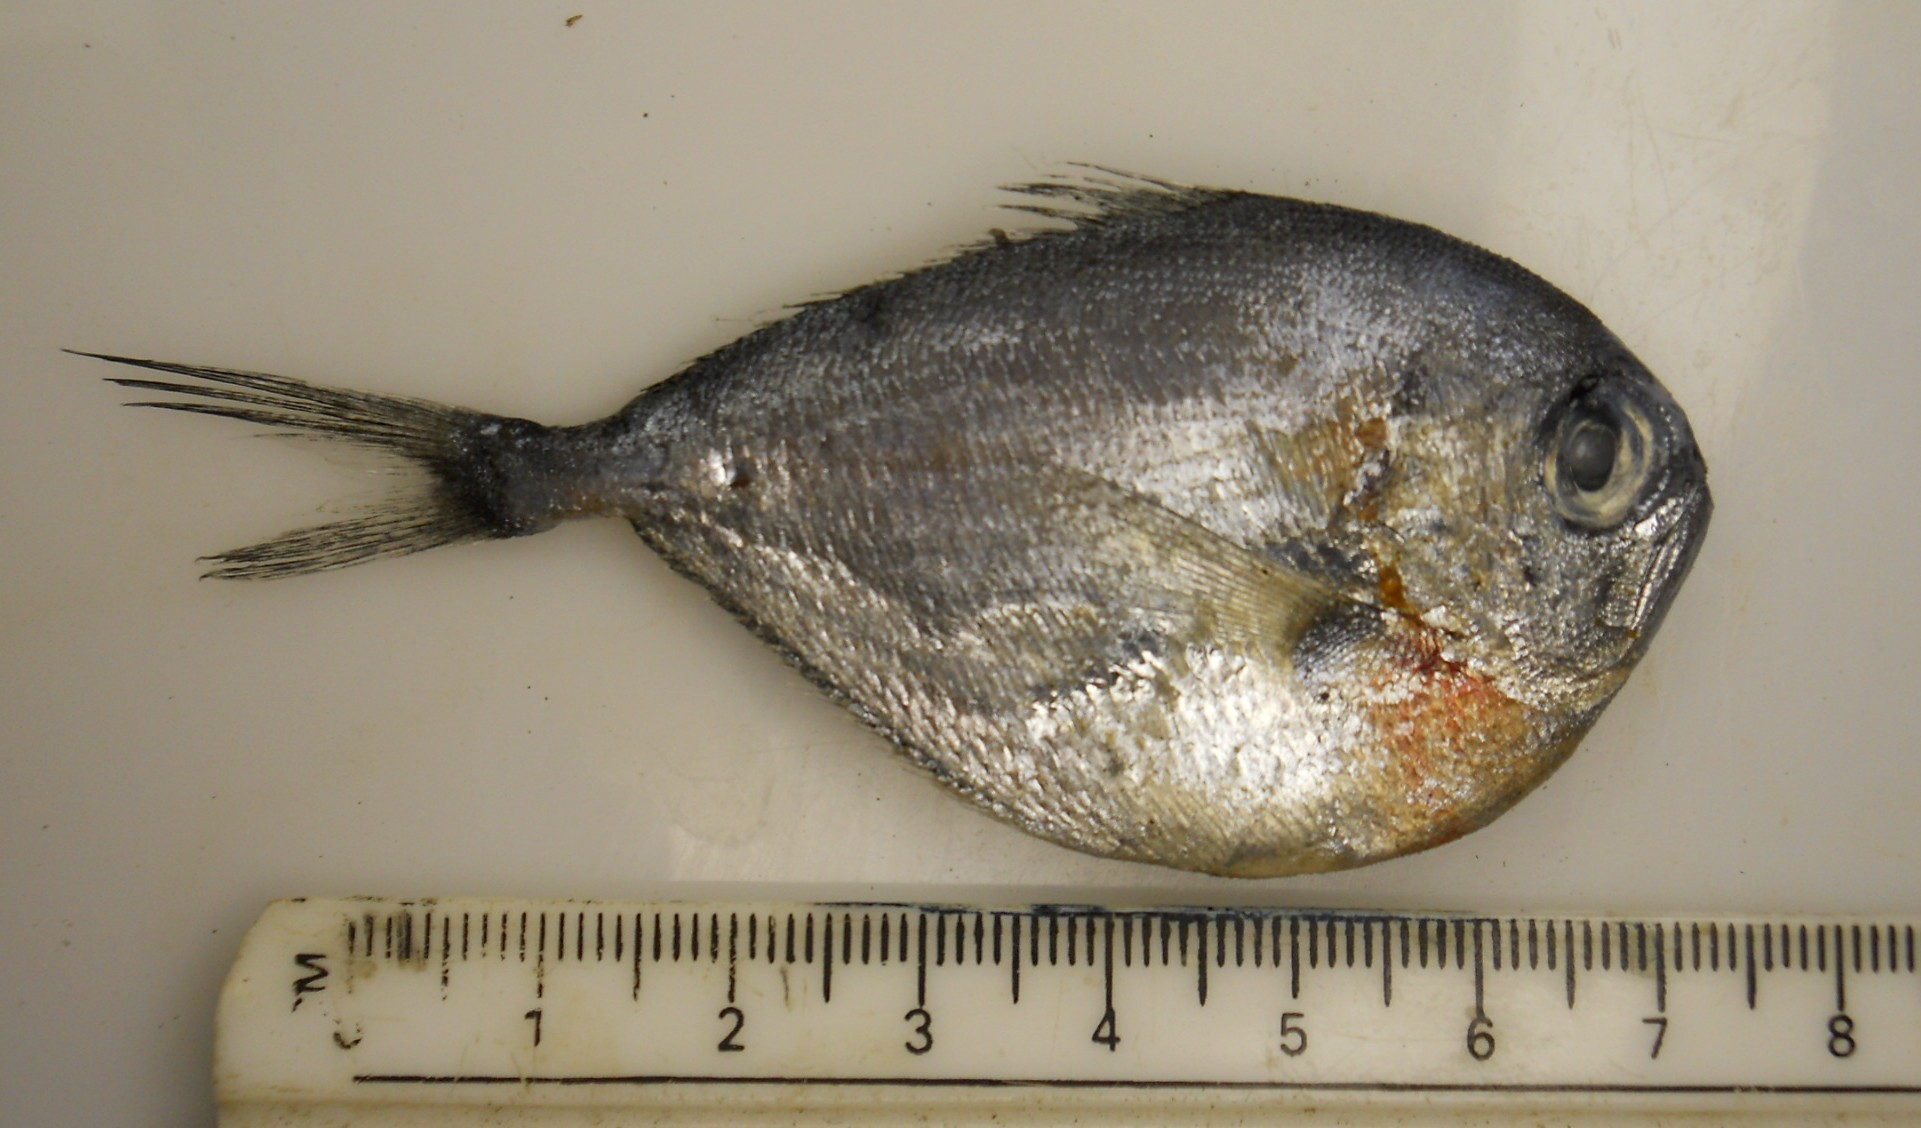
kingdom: Animalia
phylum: Chordata
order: Perciformes
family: Bramidae
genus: Brama
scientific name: Brama orcini
